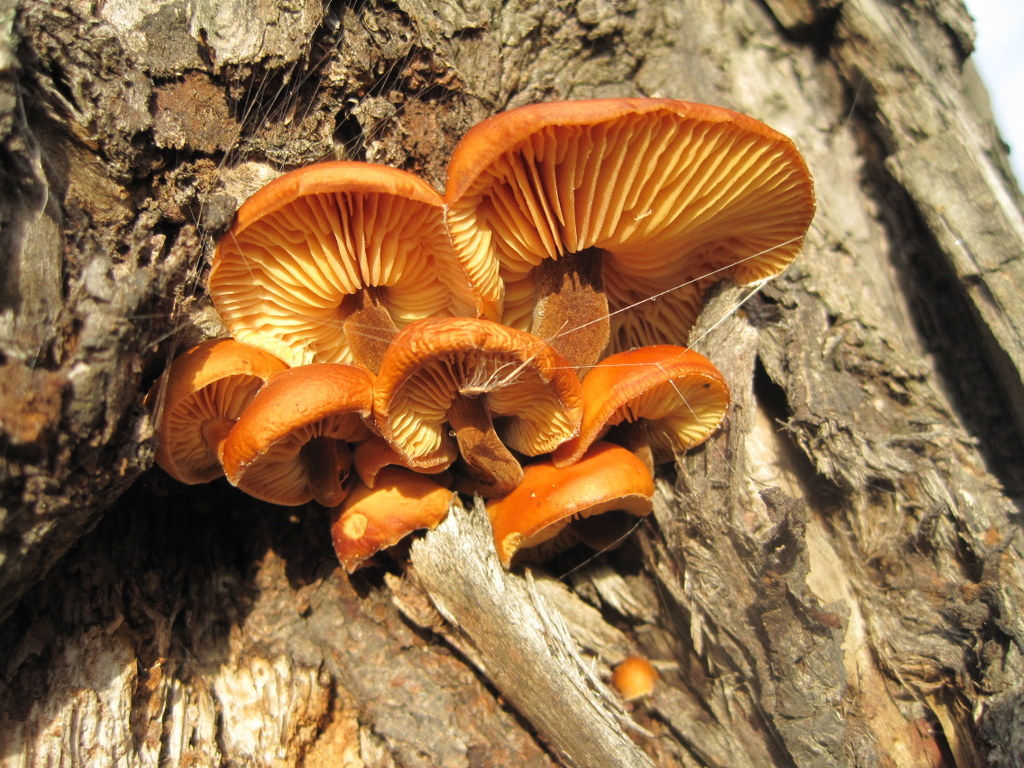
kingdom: Fungi
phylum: Basidiomycota
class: Agaricomycetes
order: Agaricales
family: Physalacriaceae
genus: Flammulina
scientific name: Flammulina velutipes
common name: gul fløjlsfod
